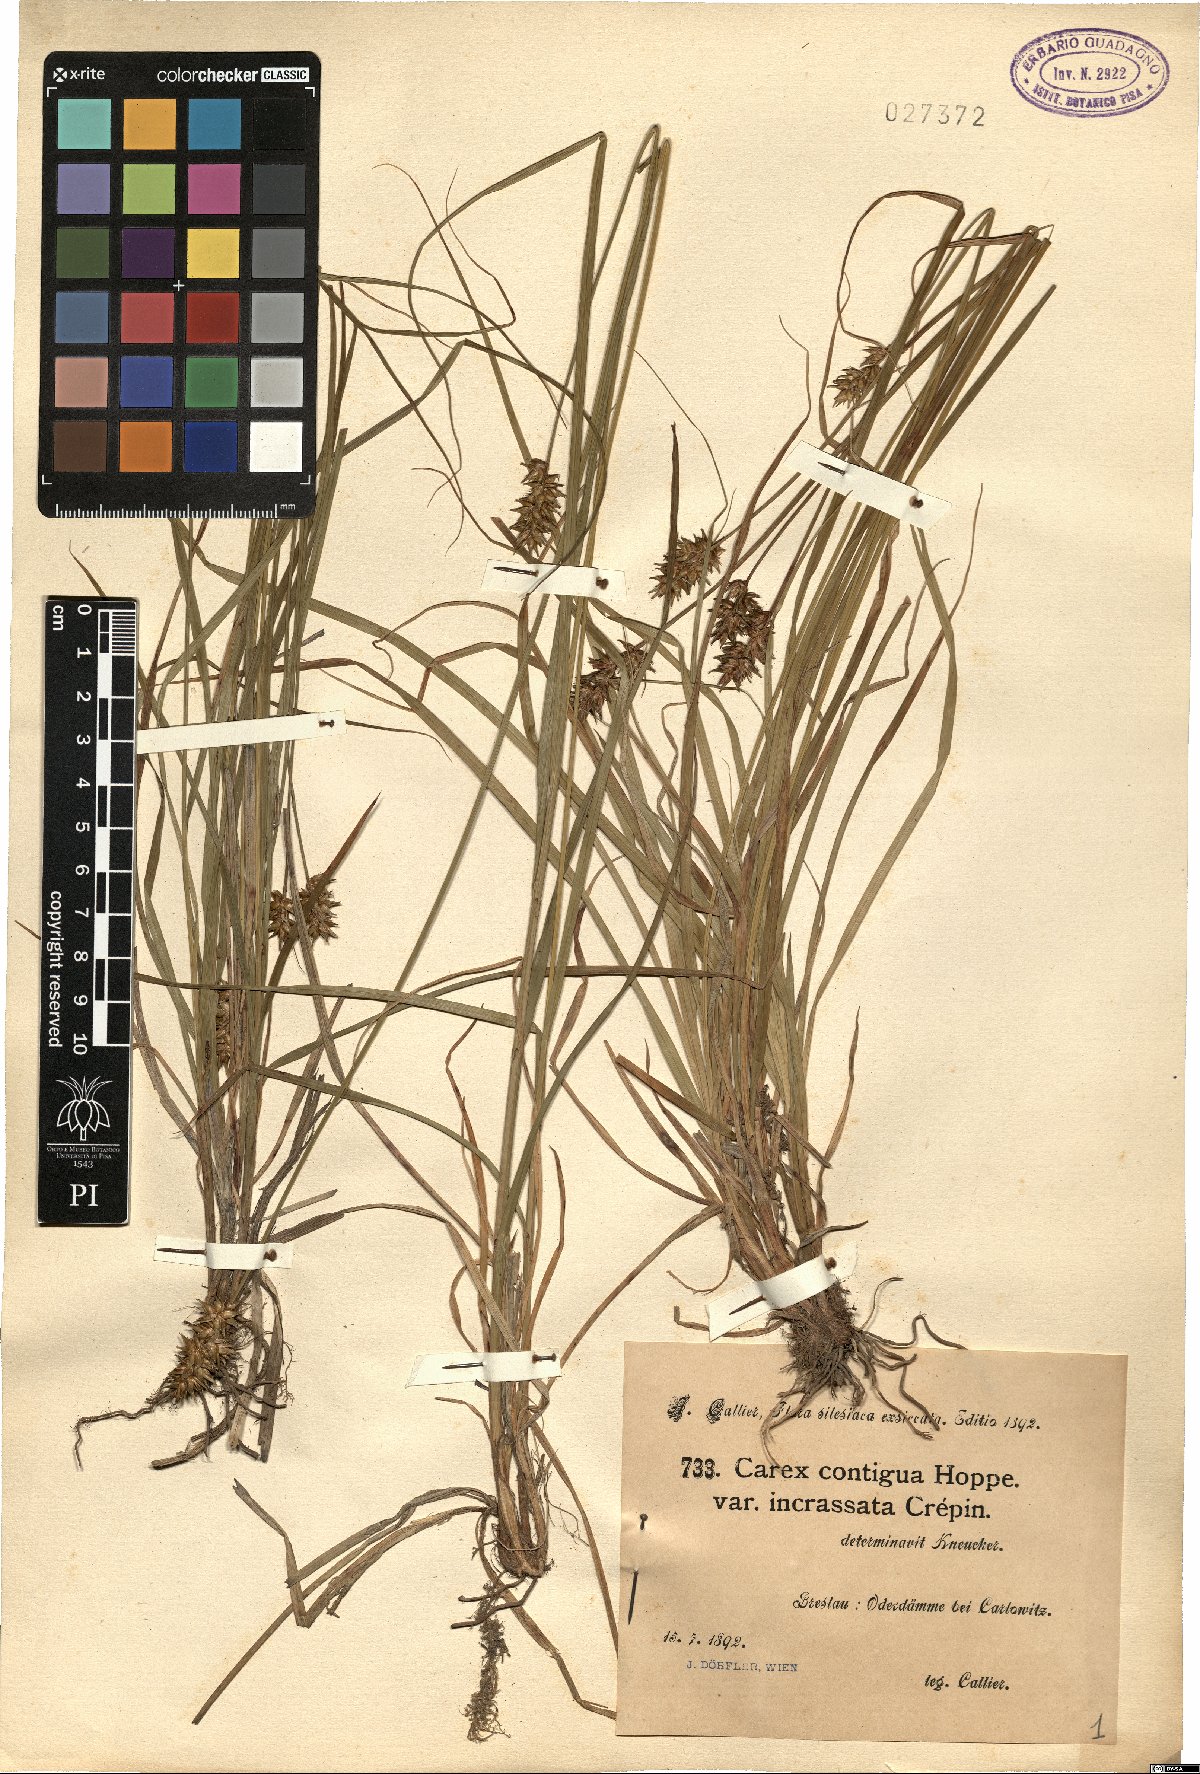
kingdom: Plantae
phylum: Tracheophyta
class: Liliopsida
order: Poales
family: Cyperaceae
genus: Carex
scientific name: Carex spicata
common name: Spiked sedge
